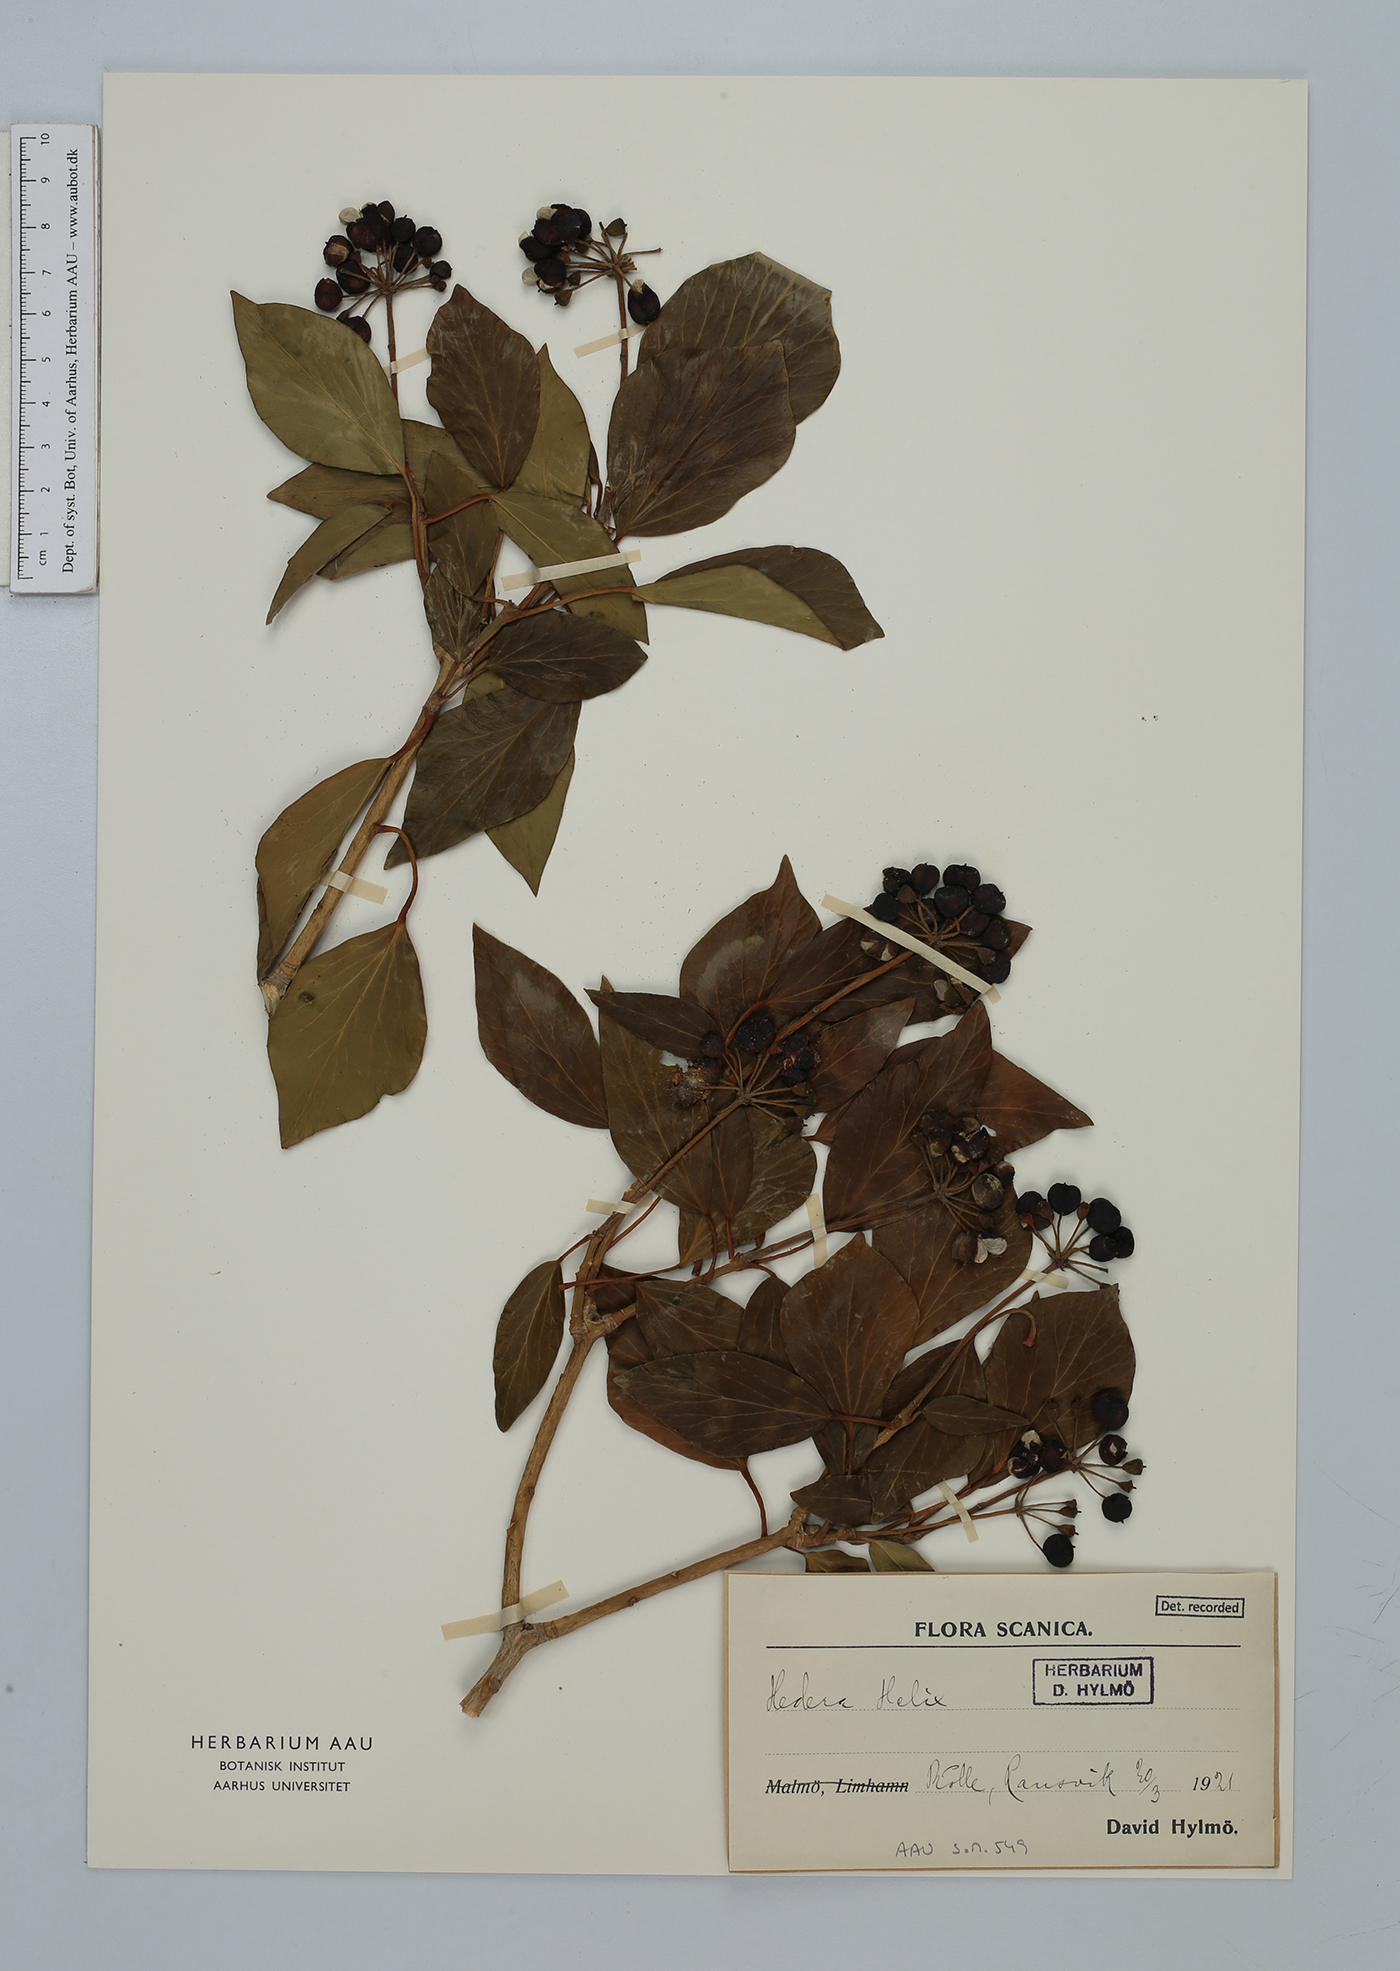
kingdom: Plantae
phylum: Tracheophyta
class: Magnoliopsida
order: Apiales
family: Araliaceae
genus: Hedera
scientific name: Hedera helix
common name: Ivy
